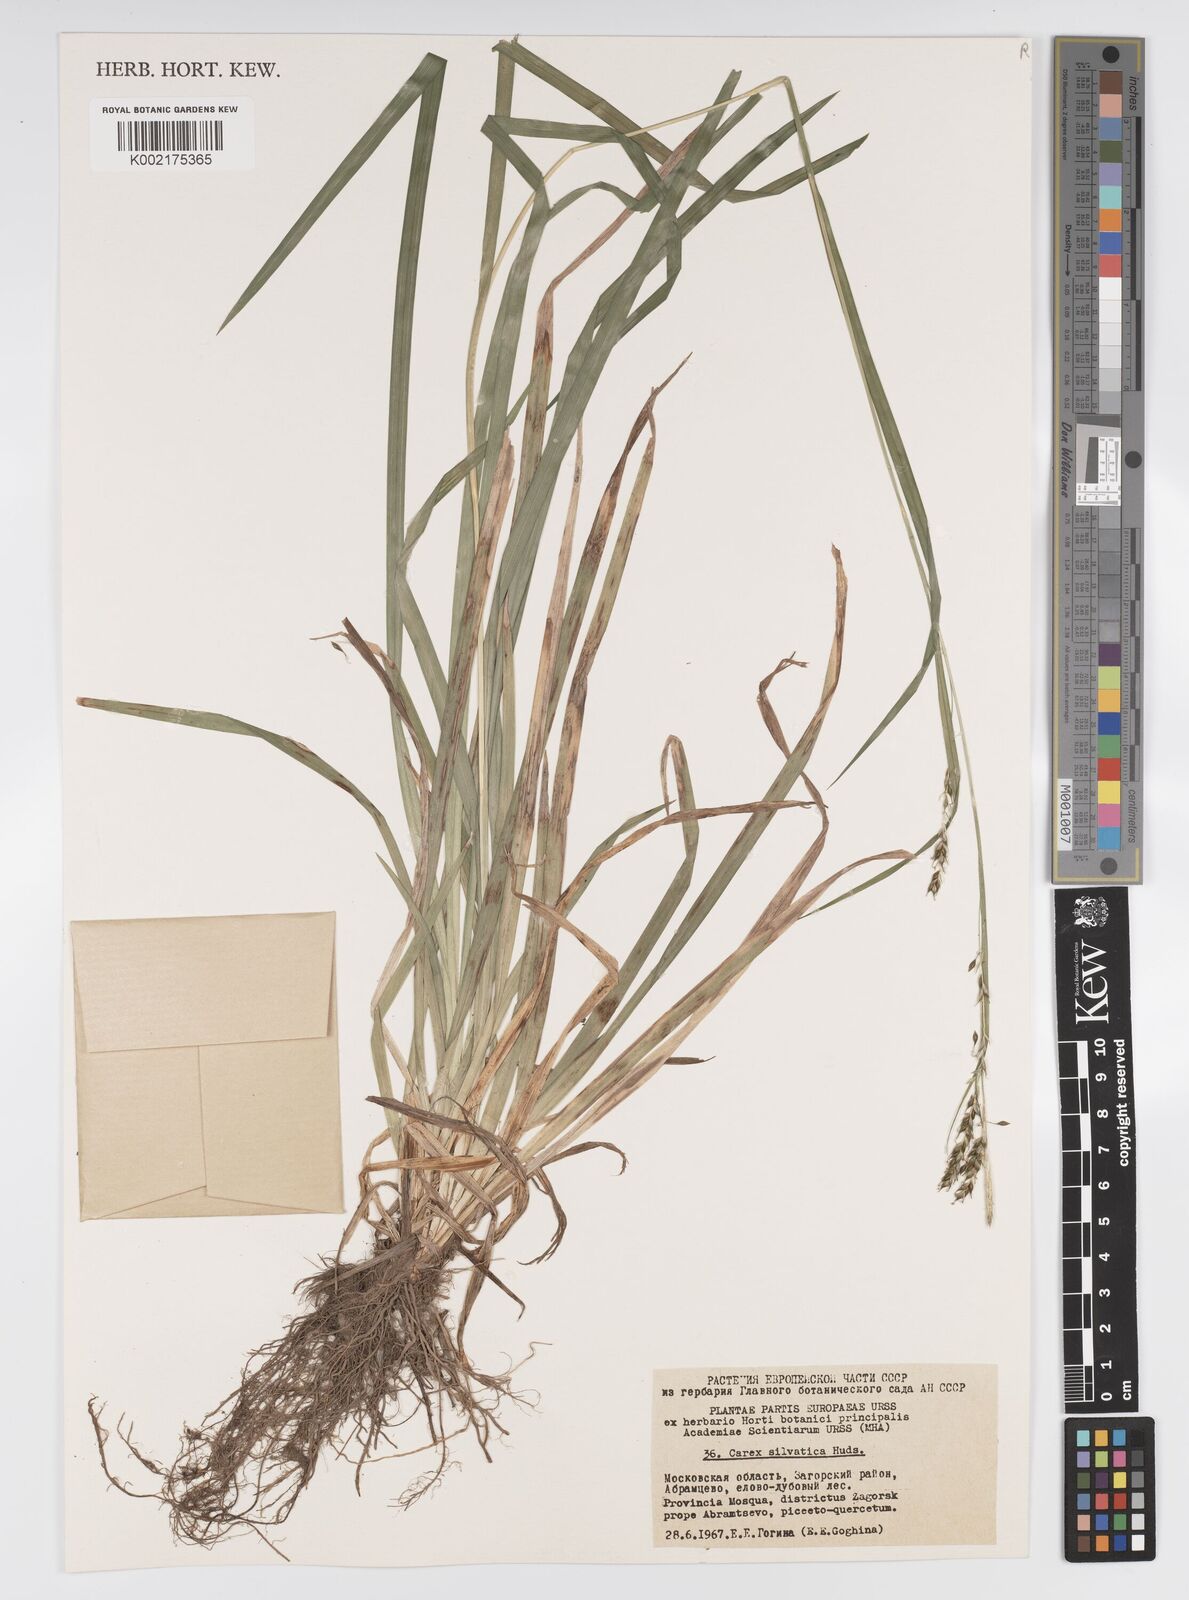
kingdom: Plantae
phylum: Tracheophyta
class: Liliopsida
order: Poales
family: Cyperaceae
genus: Carex
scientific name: Carex sylvatica
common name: Wood-sedge
